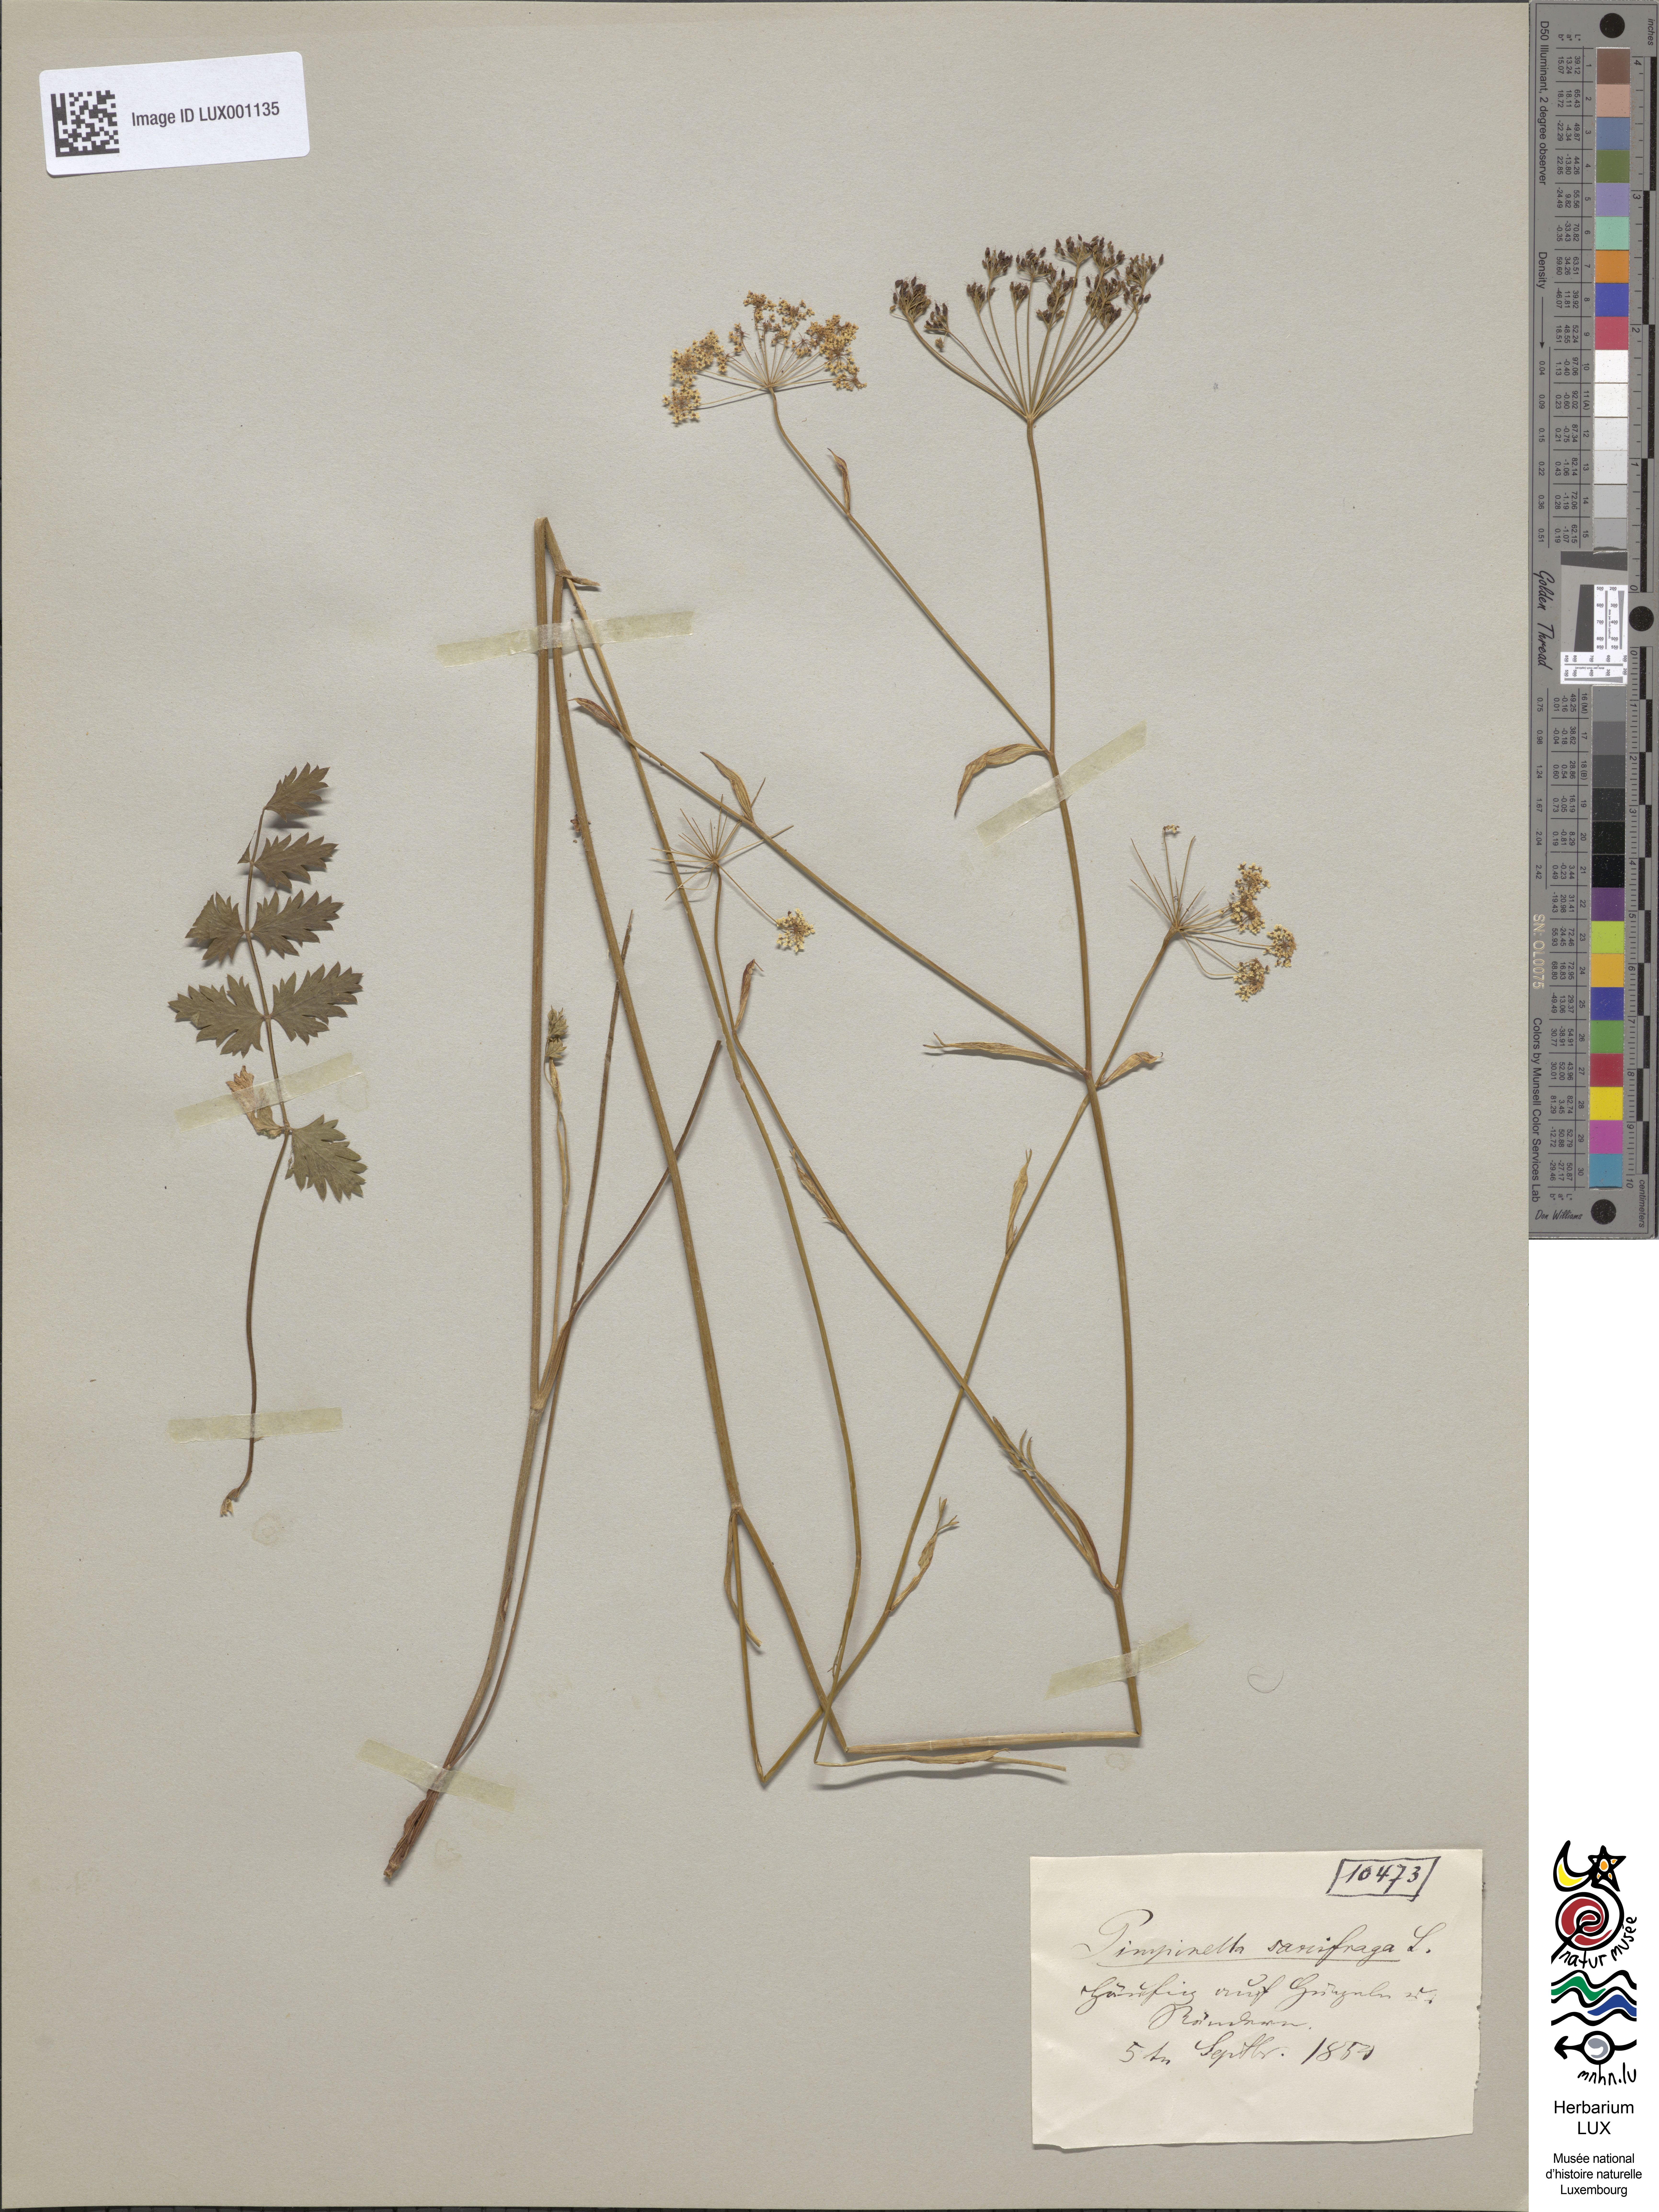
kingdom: Plantae
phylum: Tracheophyta
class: Magnoliopsida
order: Apiales
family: Apiaceae
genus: Pimpinella
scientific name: Pimpinella saxifraga
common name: Burnet-saxifrage
